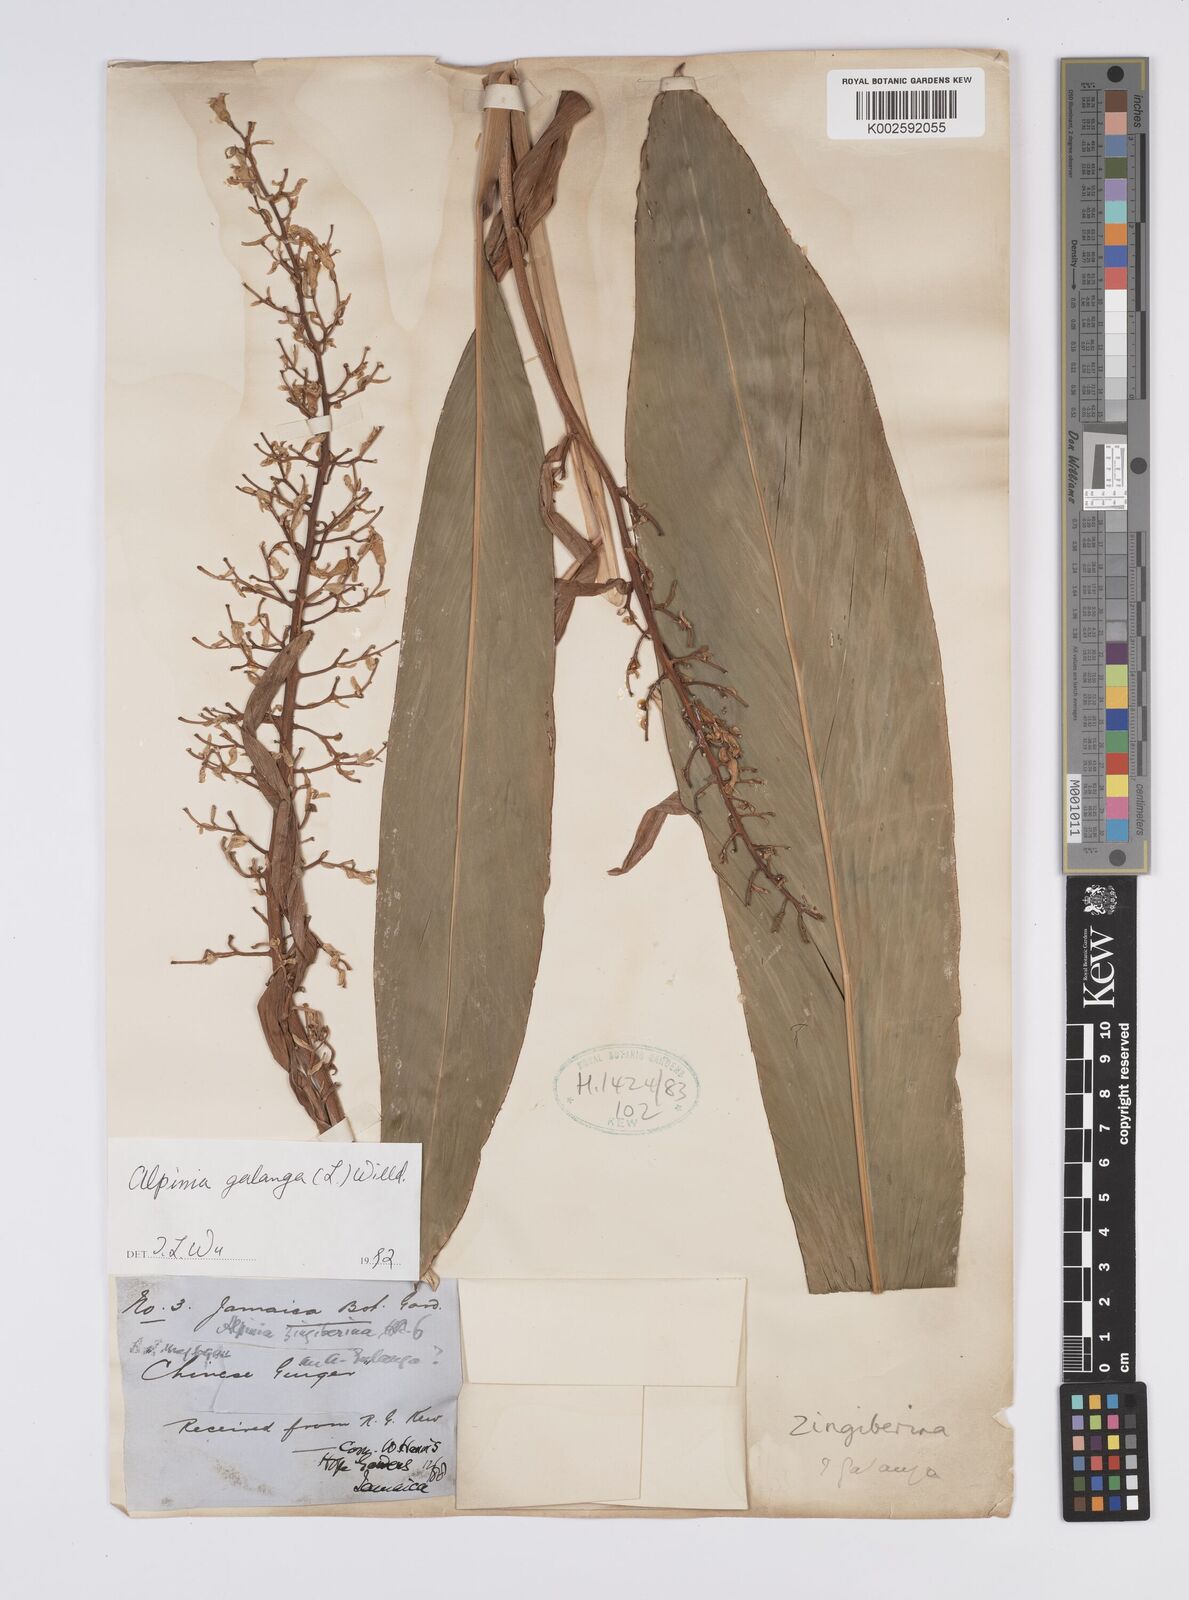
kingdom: Plantae
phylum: Tracheophyta
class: Liliopsida
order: Zingiberales
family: Zingiberaceae
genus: Alpinia
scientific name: Alpinia galanga
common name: Siamese-ginger
